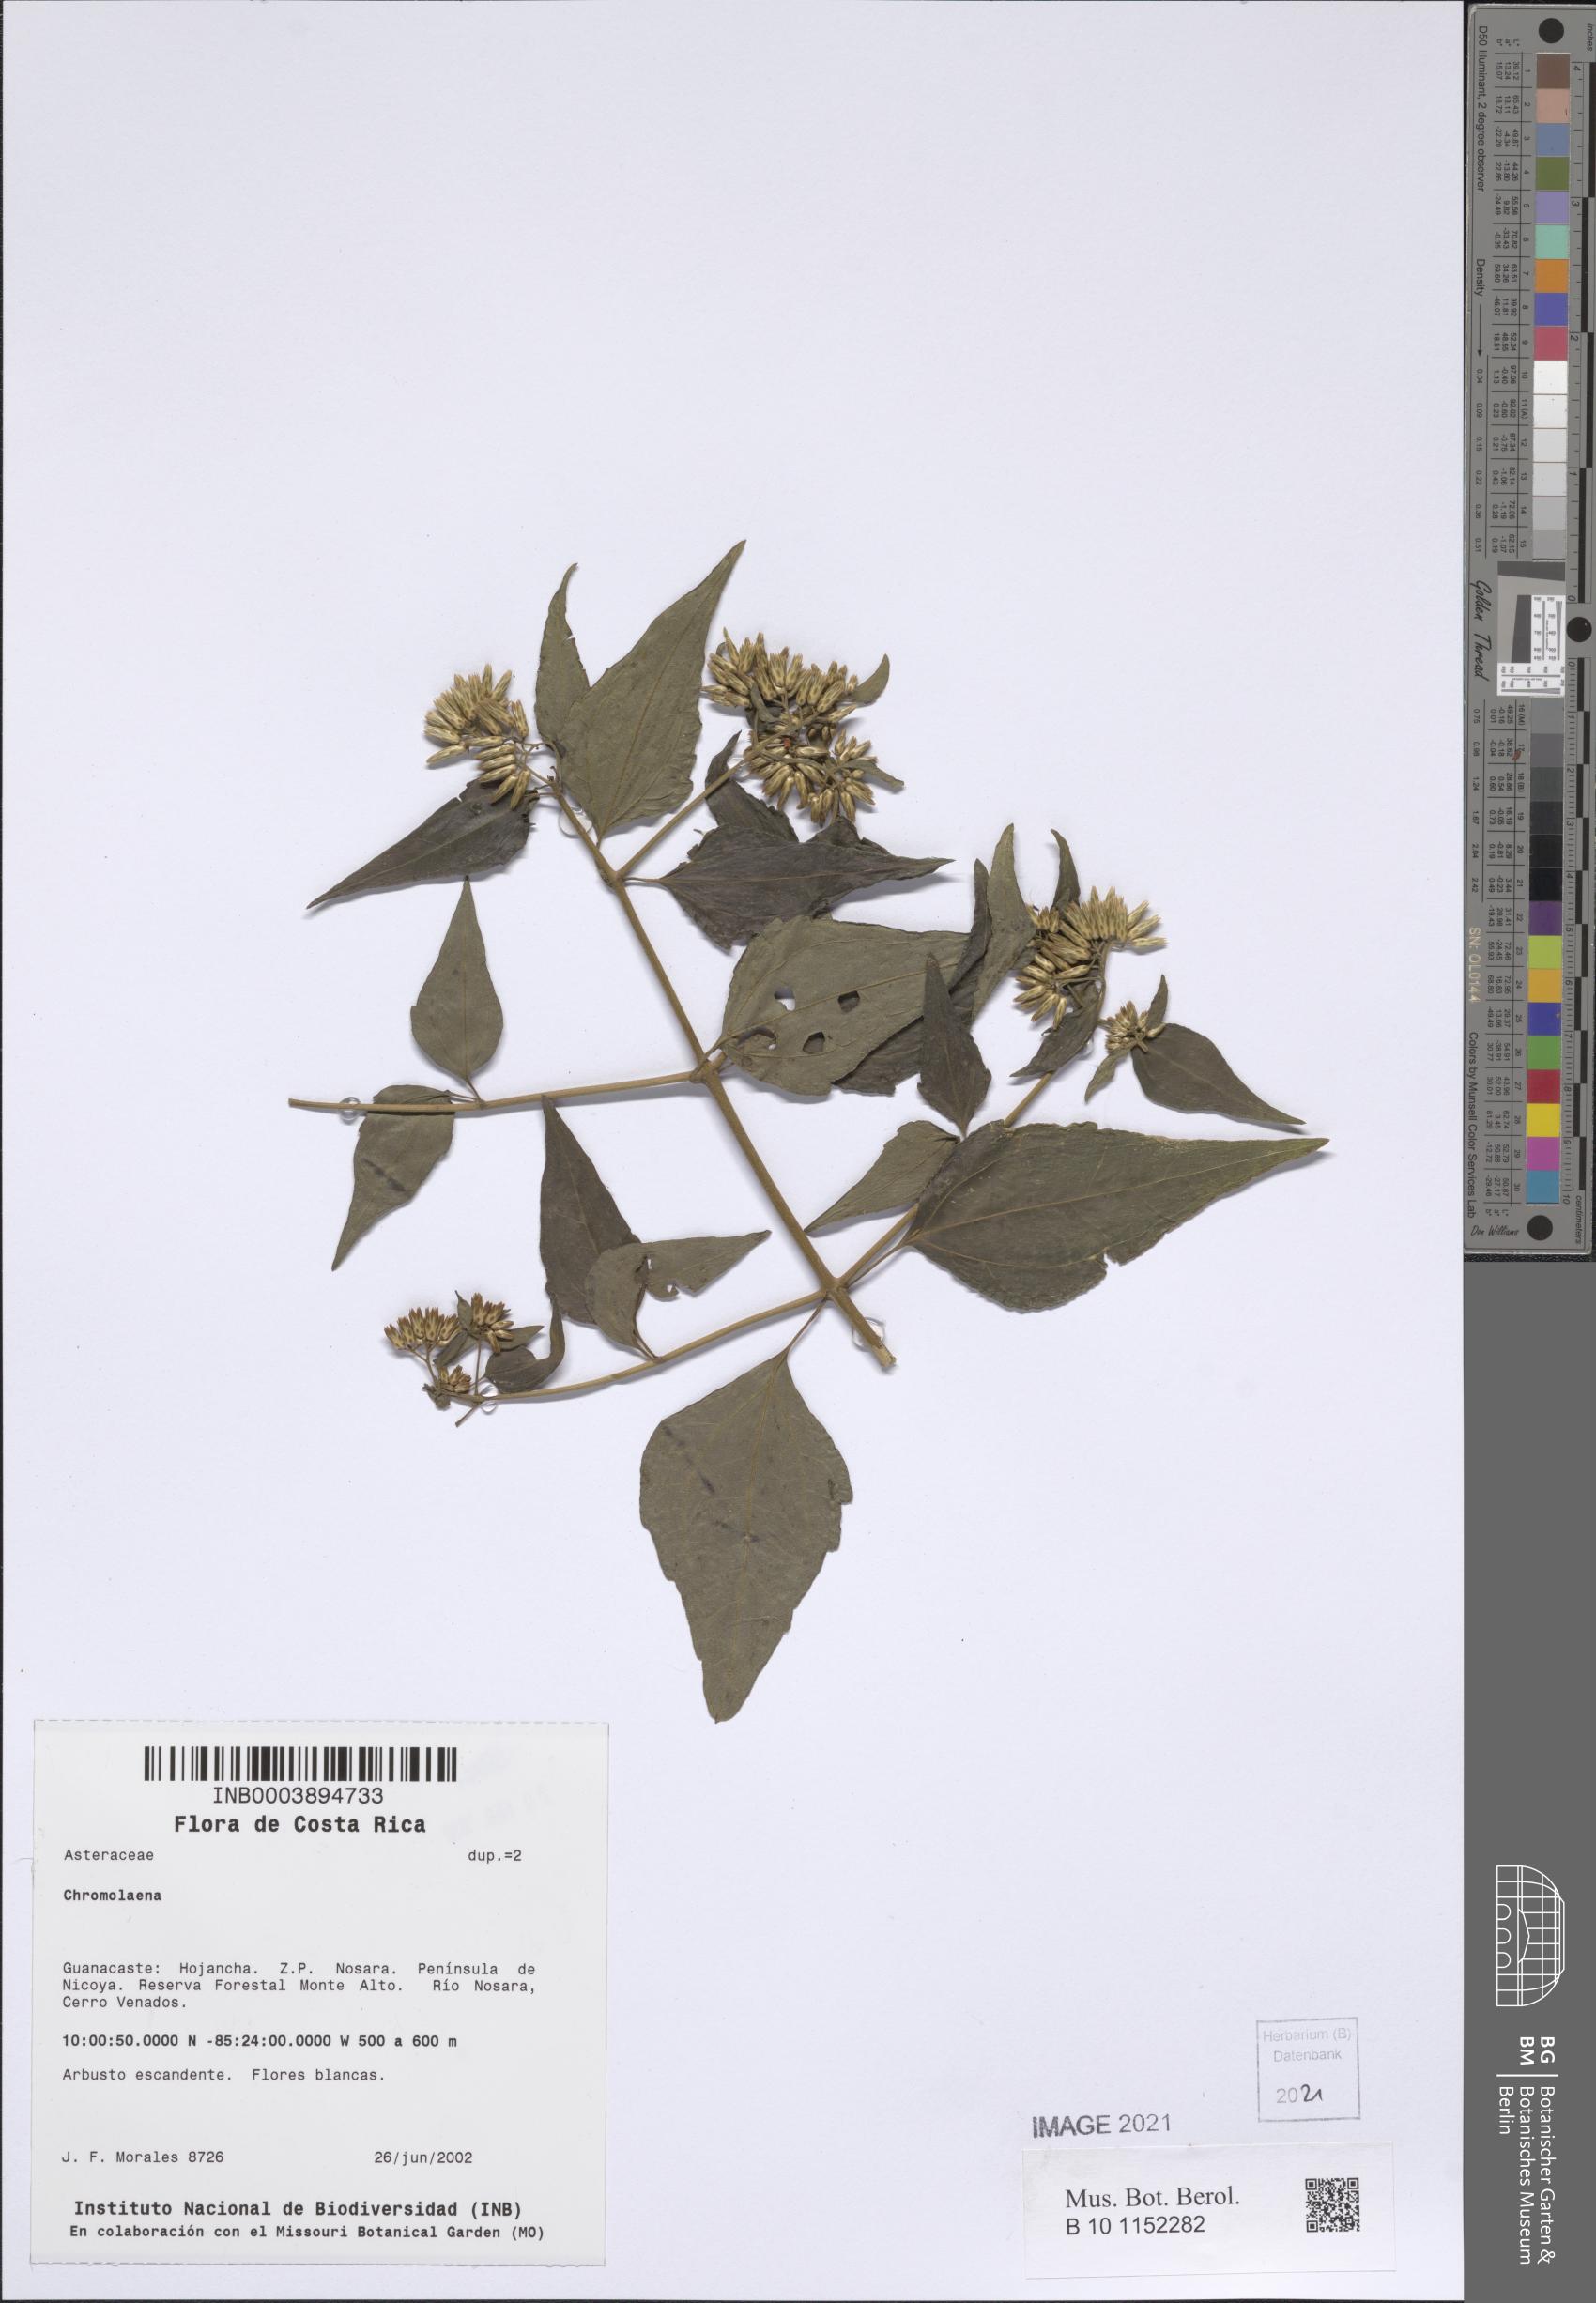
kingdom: Plantae
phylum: Tracheophyta
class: Magnoliopsida
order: Asterales
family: Asteraceae
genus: Chromolaena
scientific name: Chromolaena
